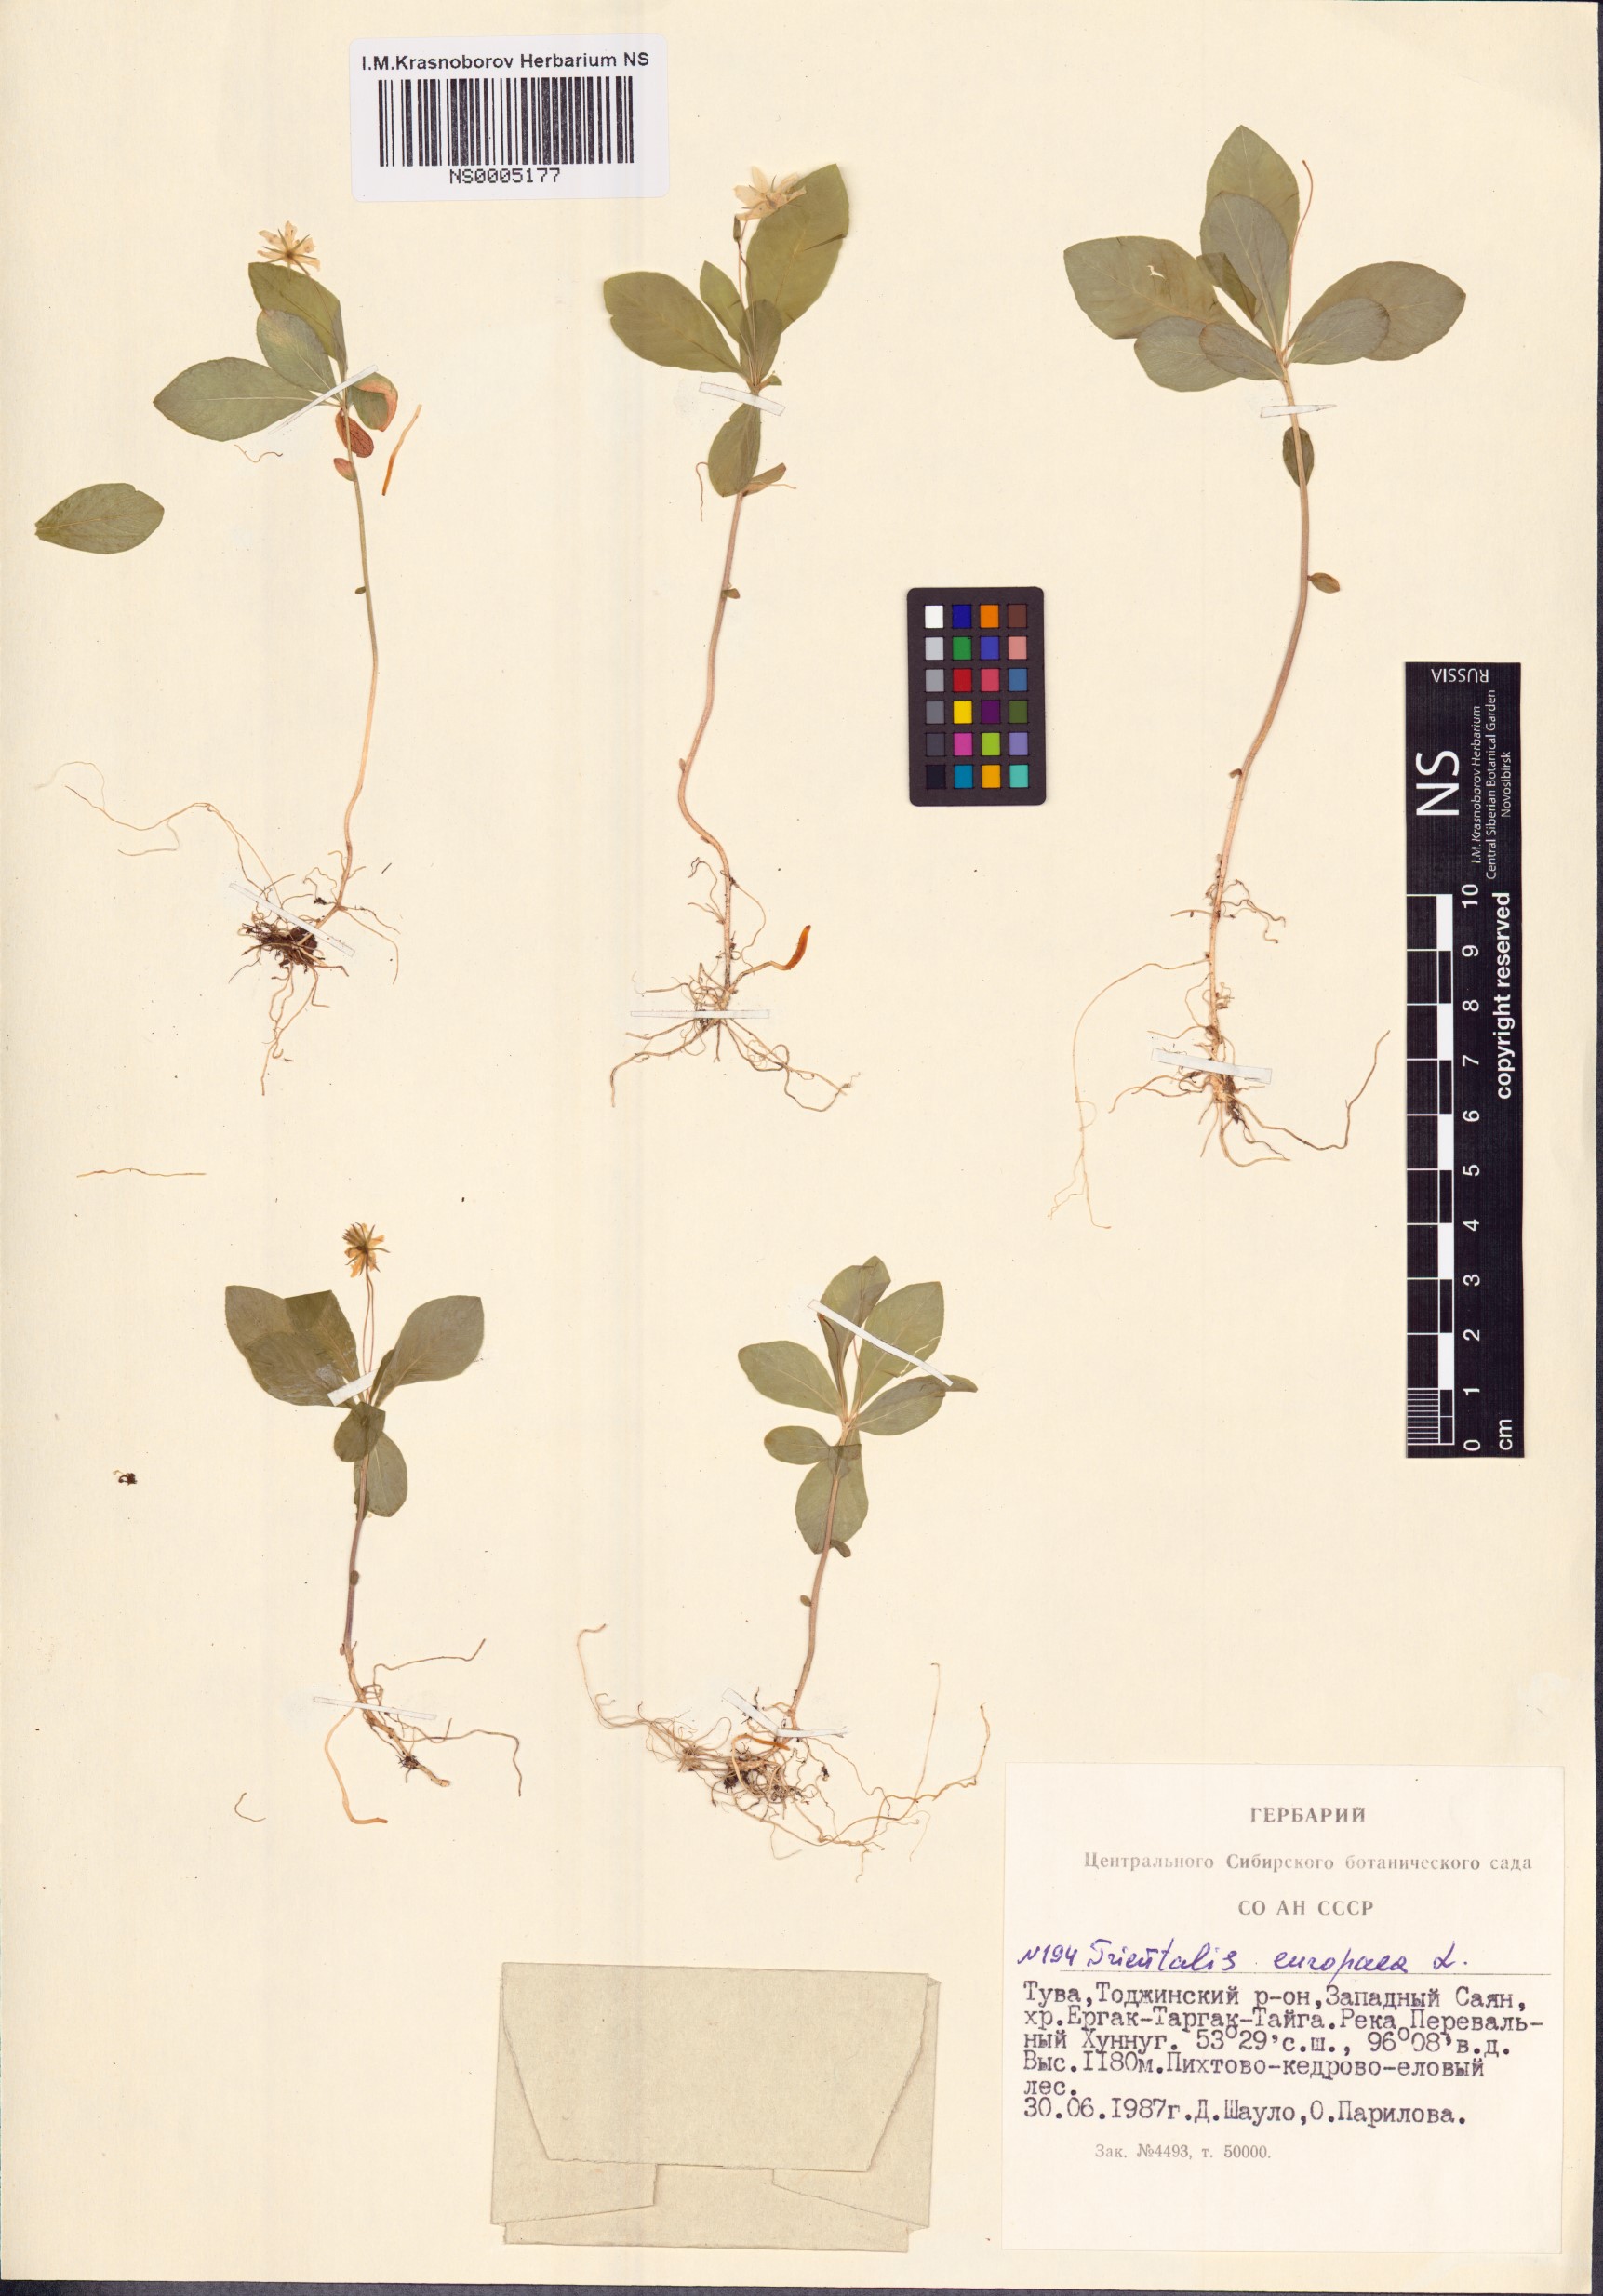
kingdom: Plantae
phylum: Tracheophyta
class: Magnoliopsida
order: Ericales
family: Primulaceae
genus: Lysimachia
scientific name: Lysimachia europaea
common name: Arctic starflower
